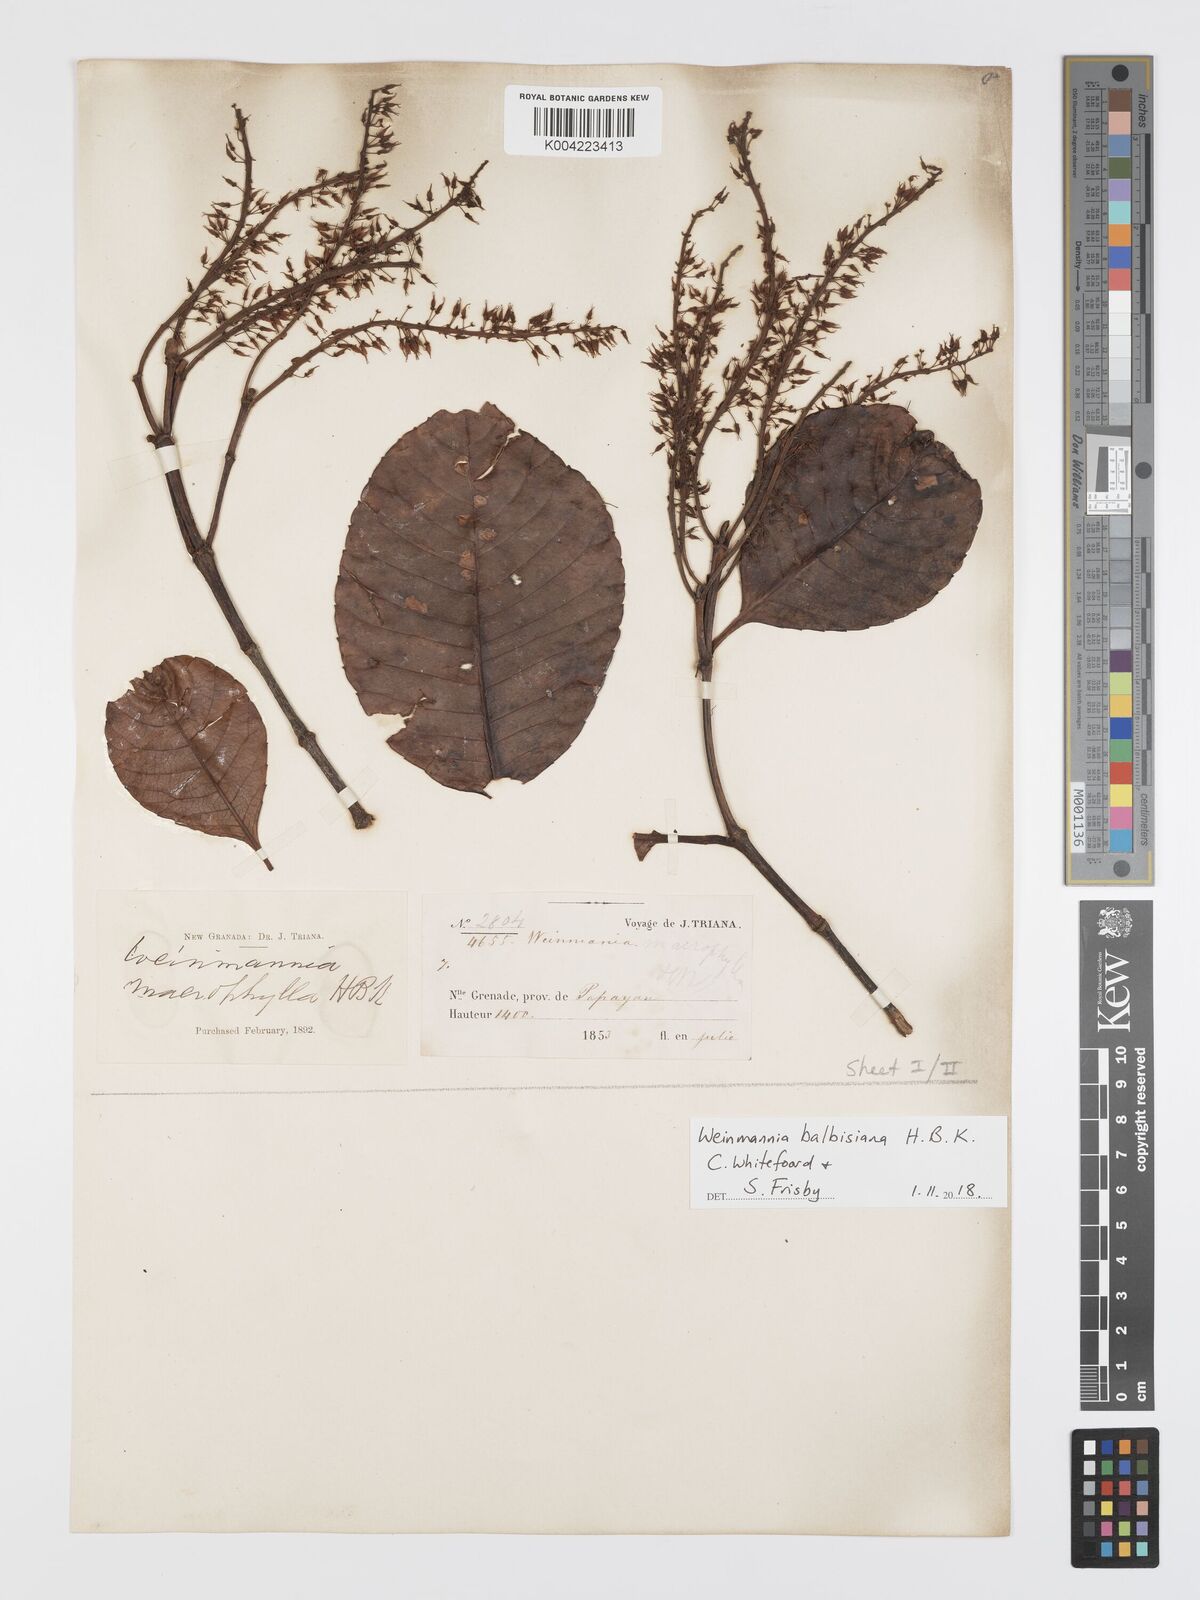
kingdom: Plantae
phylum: Tracheophyta
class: Magnoliopsida
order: Oxalidales
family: Cunoniaceae
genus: Weinmannia
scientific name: Weinmannia balbisana
